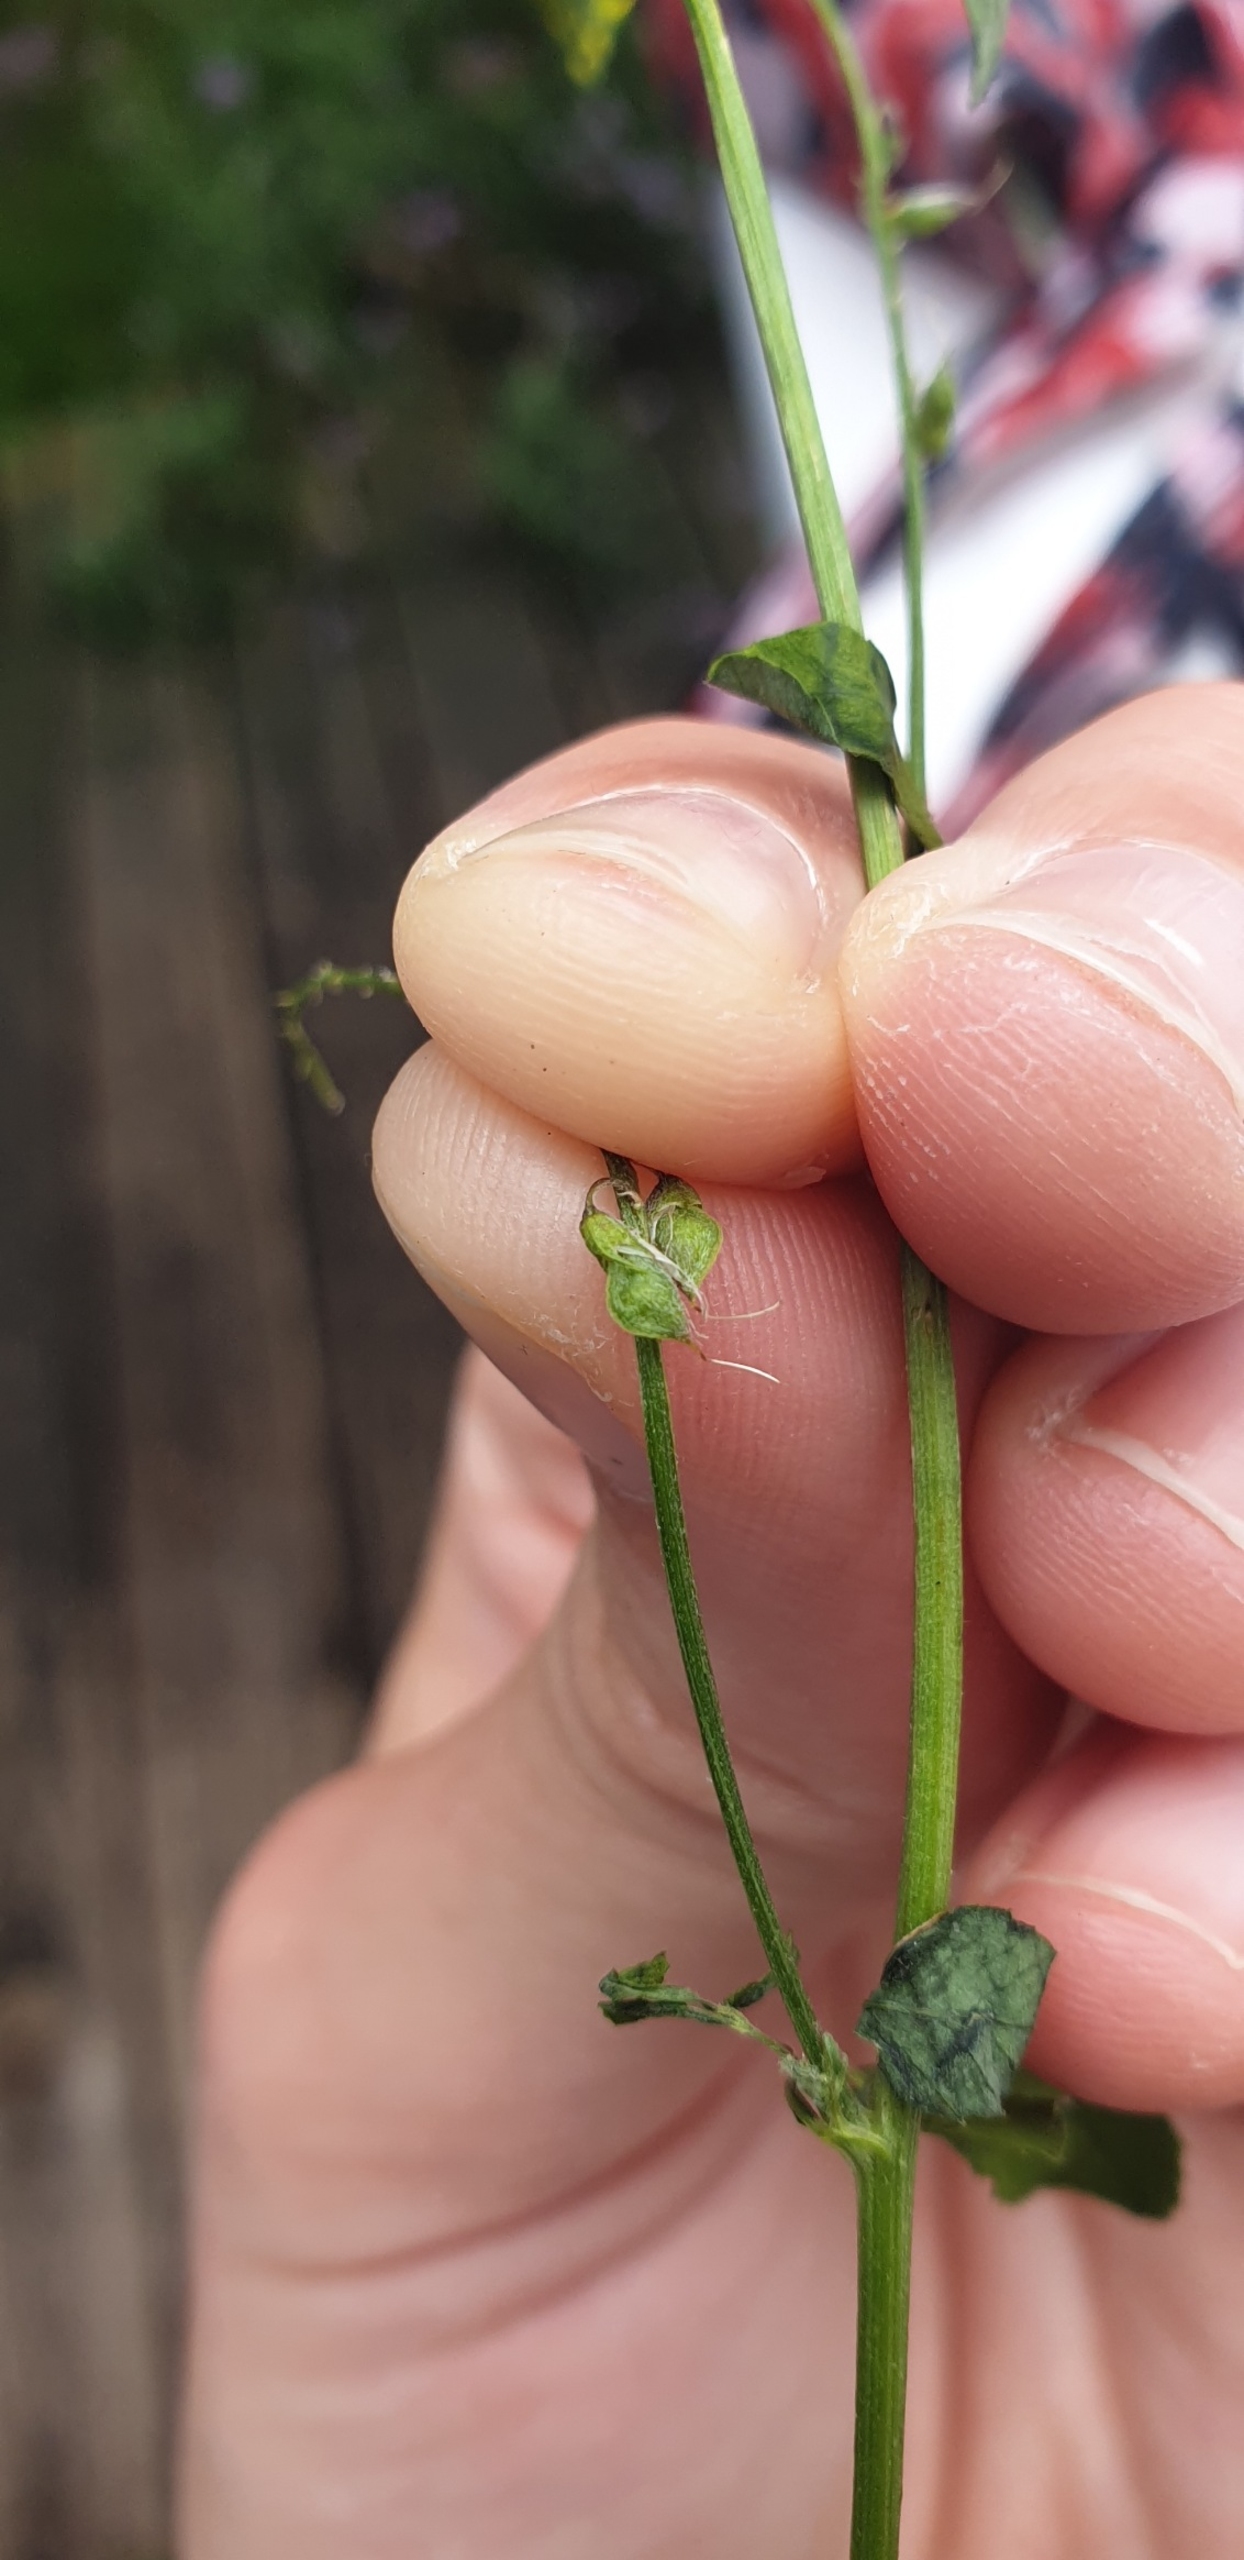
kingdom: Plantae
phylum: Tracheophyta
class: Magnoliopsida
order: Fabales
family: Fabaceae
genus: Melilotus
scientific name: Melilotus altissimus
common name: Høj stenkløver
